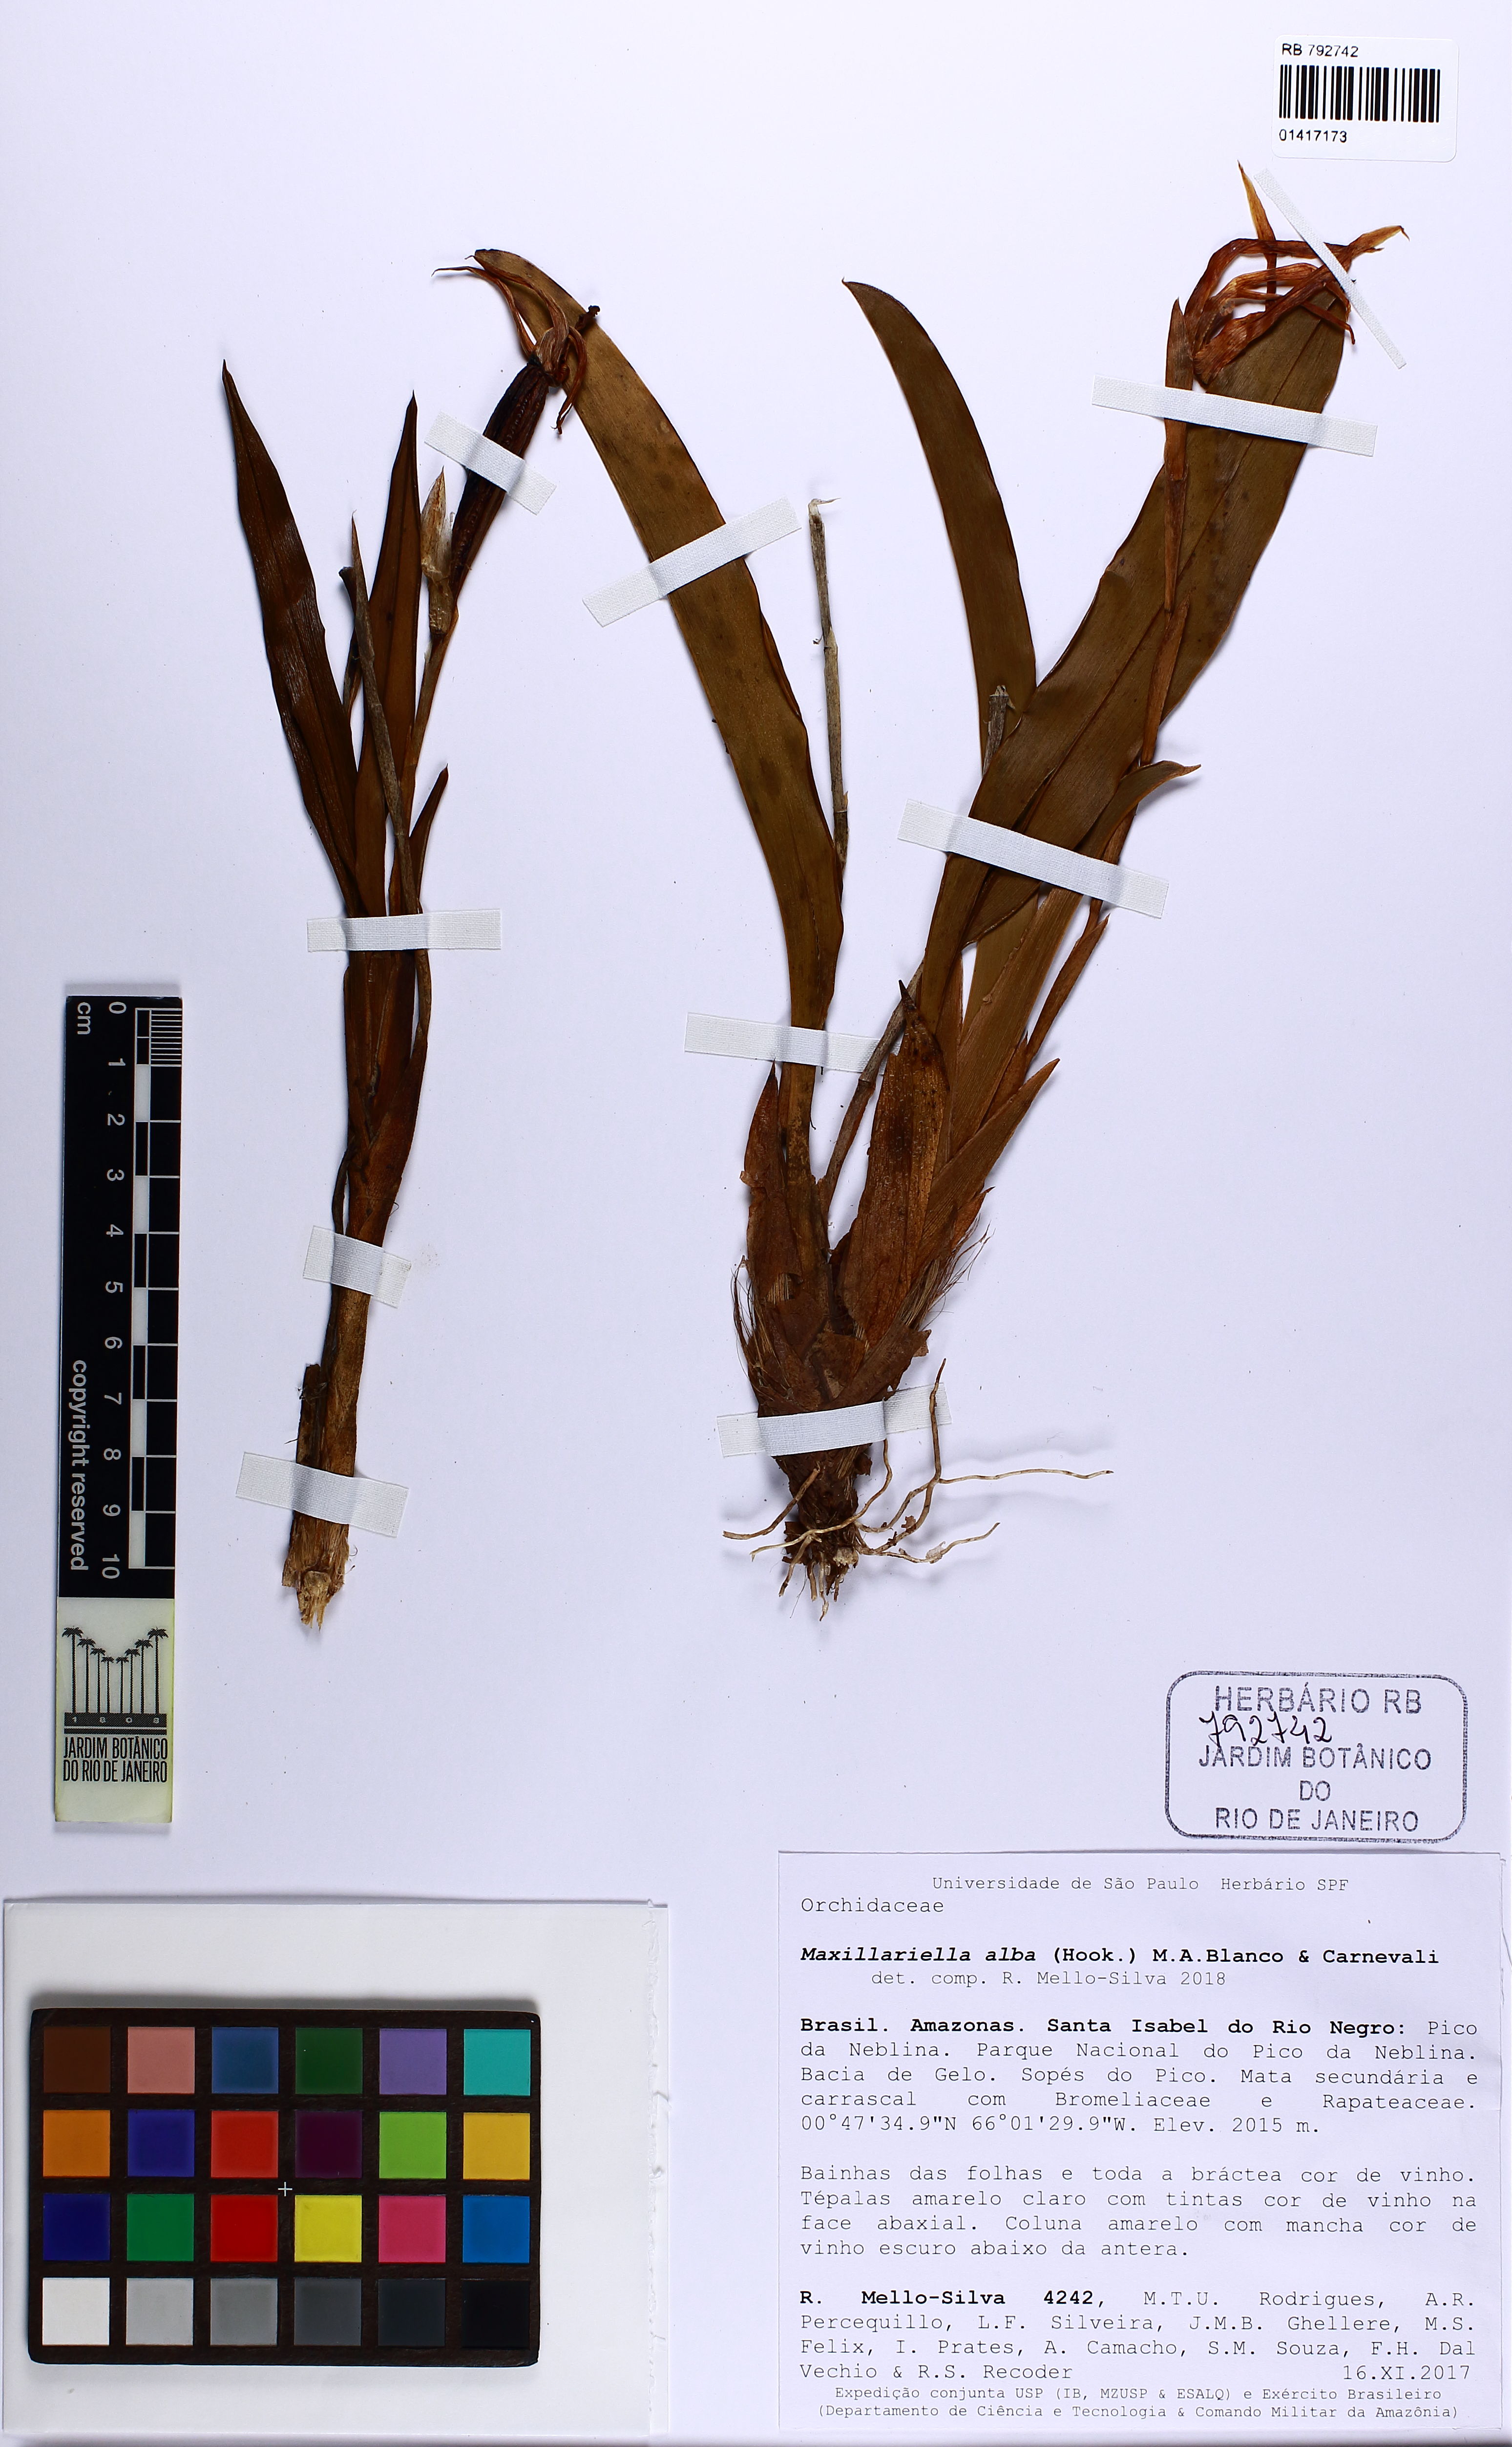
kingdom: Plantae
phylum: Tracheophyta
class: Liliopsida
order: Asparagales
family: Orchidaceae
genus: Maxillaria
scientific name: Maxillaria alba
